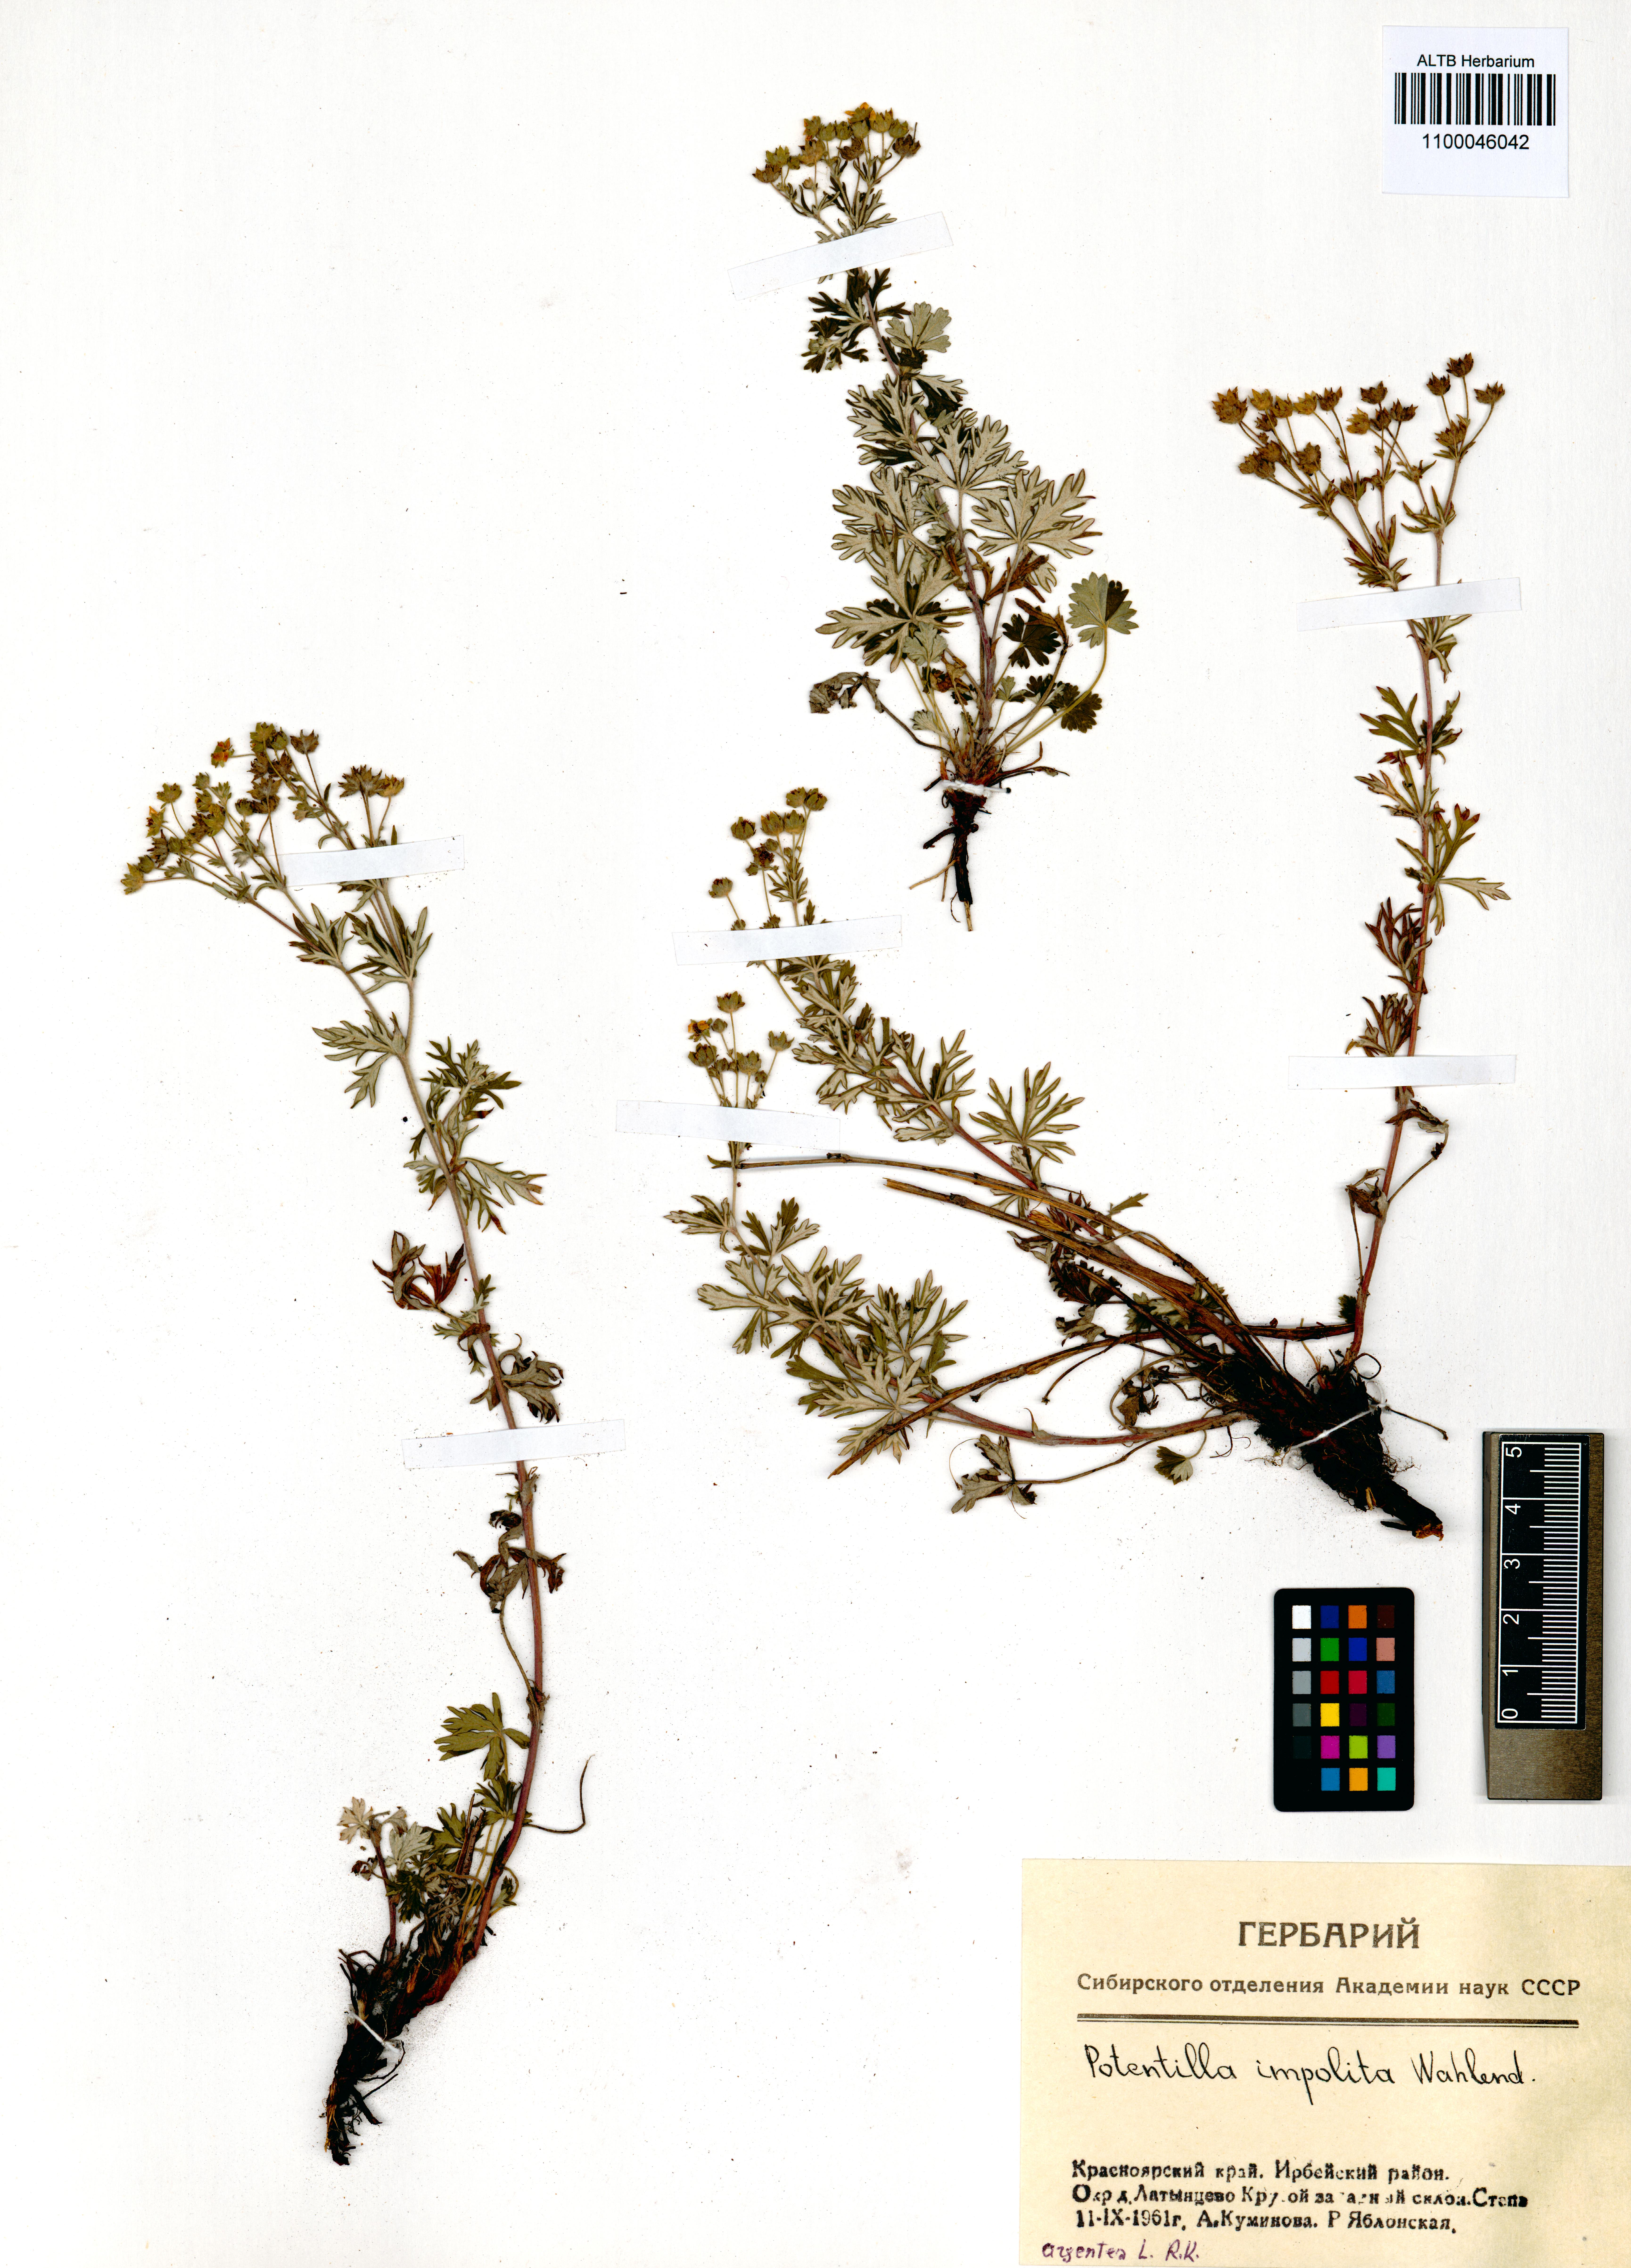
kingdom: Plantae
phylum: Tracheophyta
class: Magnoliopsida
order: Rosales
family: Rosaceae
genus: Potentilla
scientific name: Potentilla argentea
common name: Hoary cinquefoil
